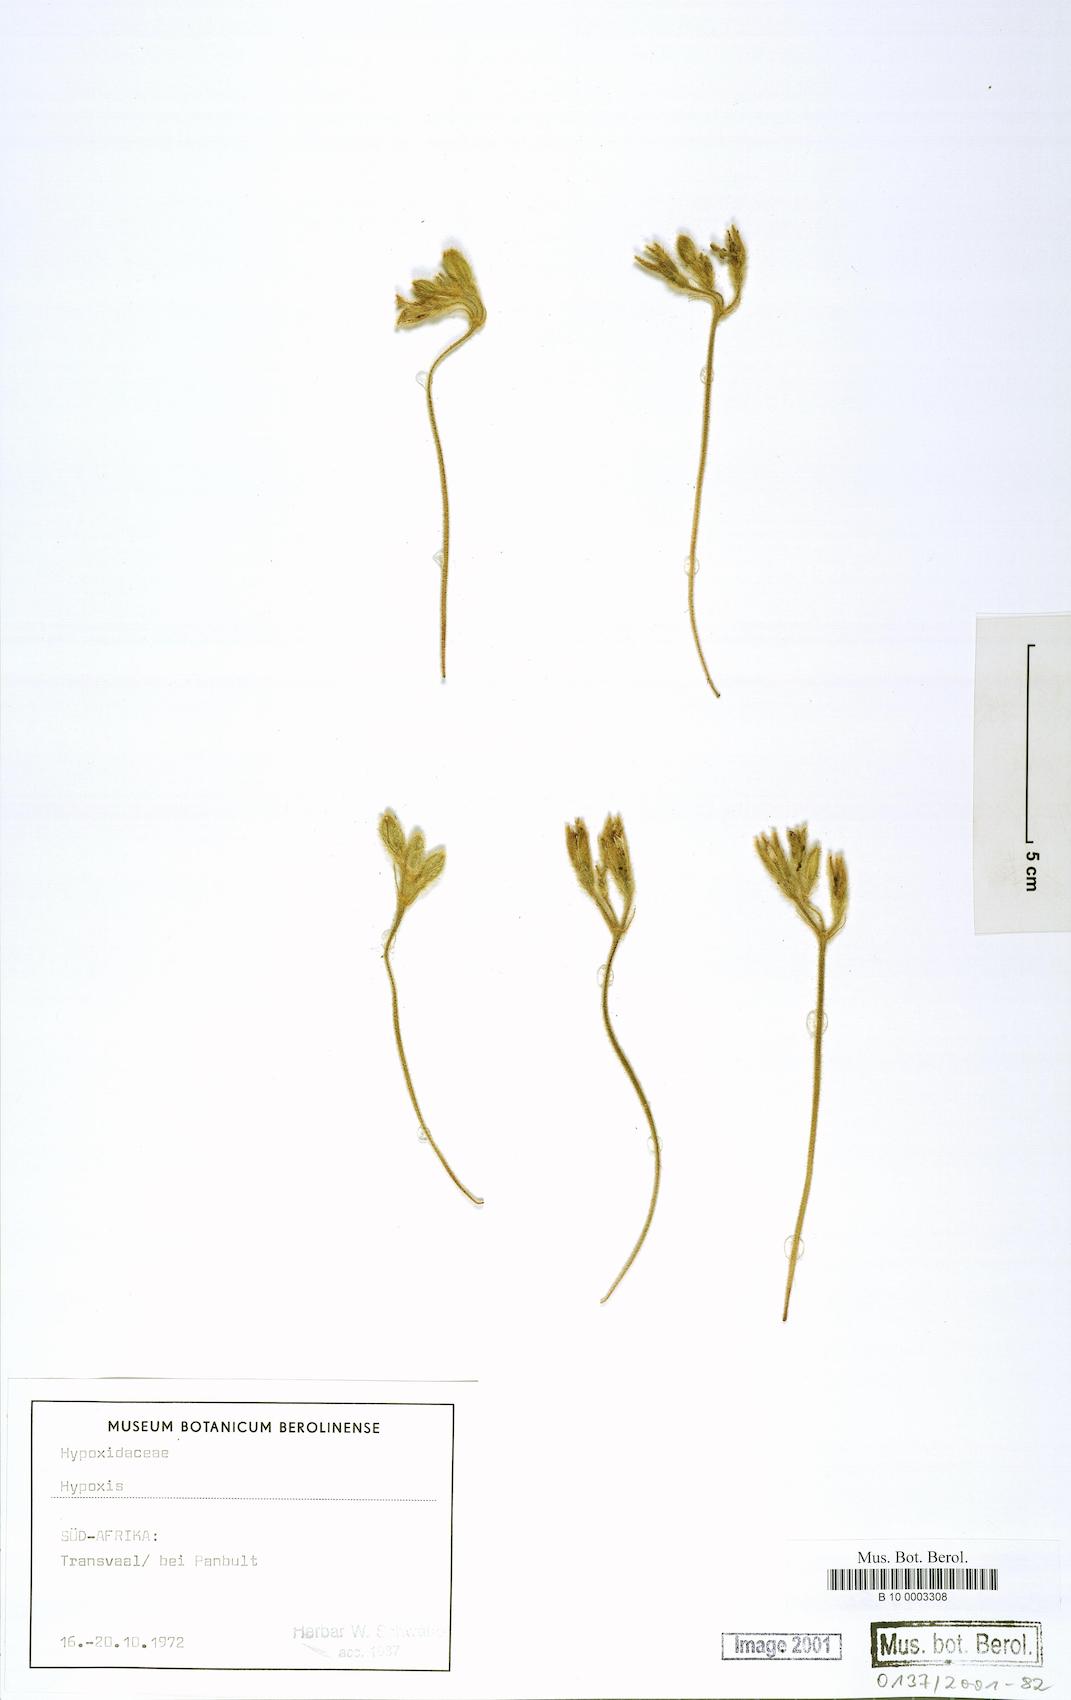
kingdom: Plantae
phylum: Tracheophyta
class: Liliopsida
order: Asparagales
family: Hypoxidaceae
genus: Hypoxis
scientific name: Hypoxis
